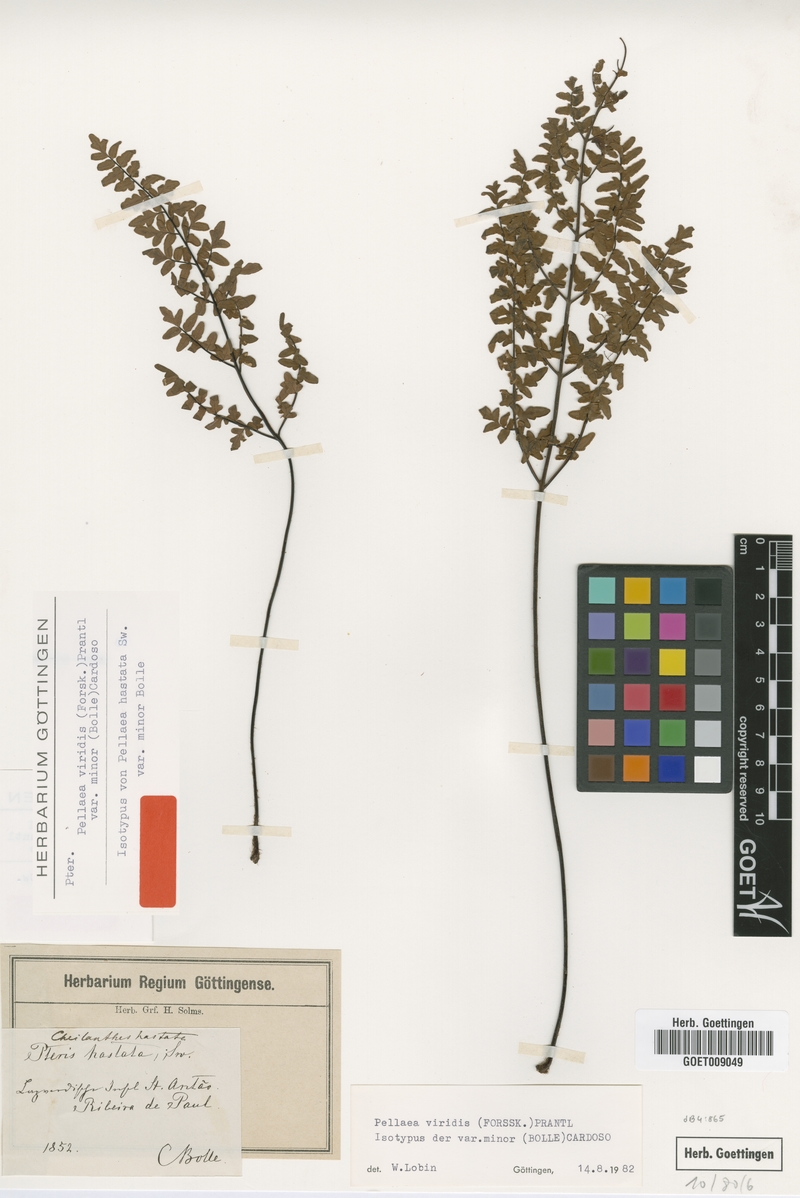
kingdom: Plantae
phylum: Tracheophyta
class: Polypodiopsida
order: Polypodiales
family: Pteridaceae
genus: Cheilanthes
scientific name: Cheilanthes viridis
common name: Green cliffbrake
